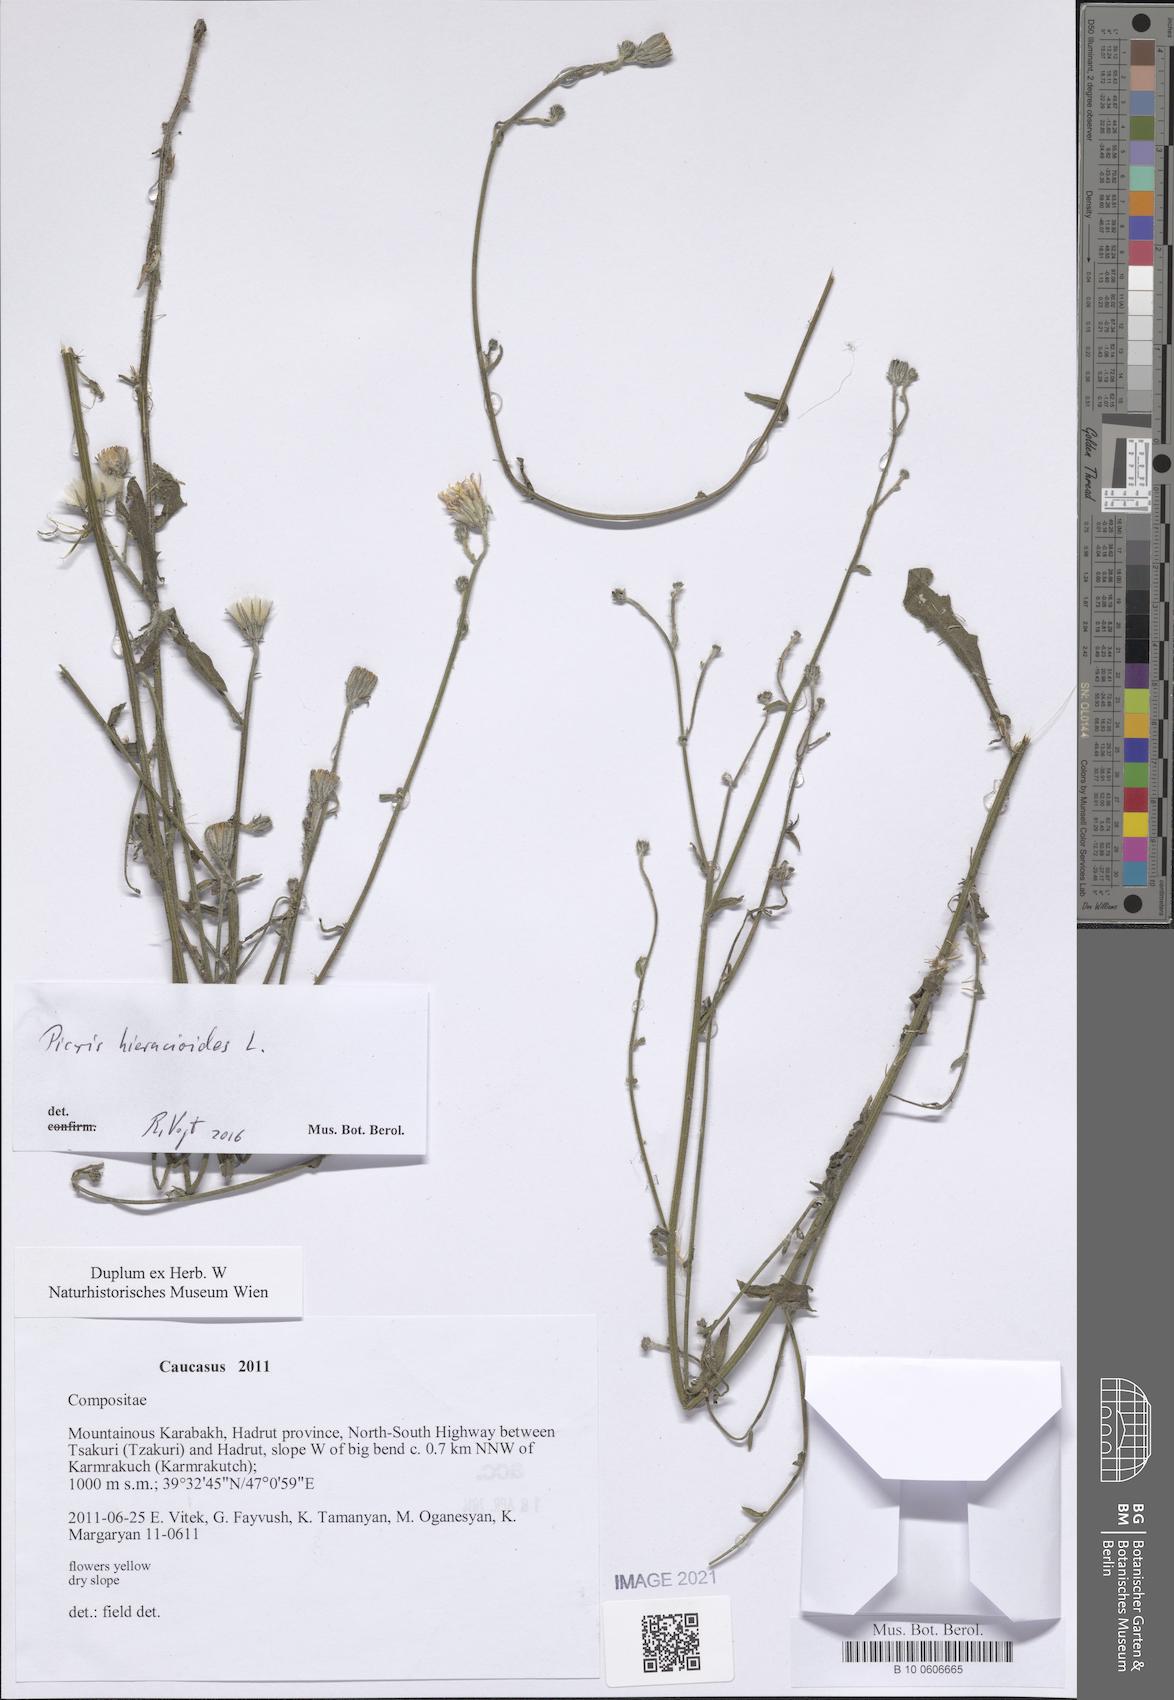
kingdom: Plantae
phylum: Tracheophyta
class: Magnoliopsida
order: Asterales
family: Asteraceae
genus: Picris
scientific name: Picris hieracioides
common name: Hawkweed oxtongue
